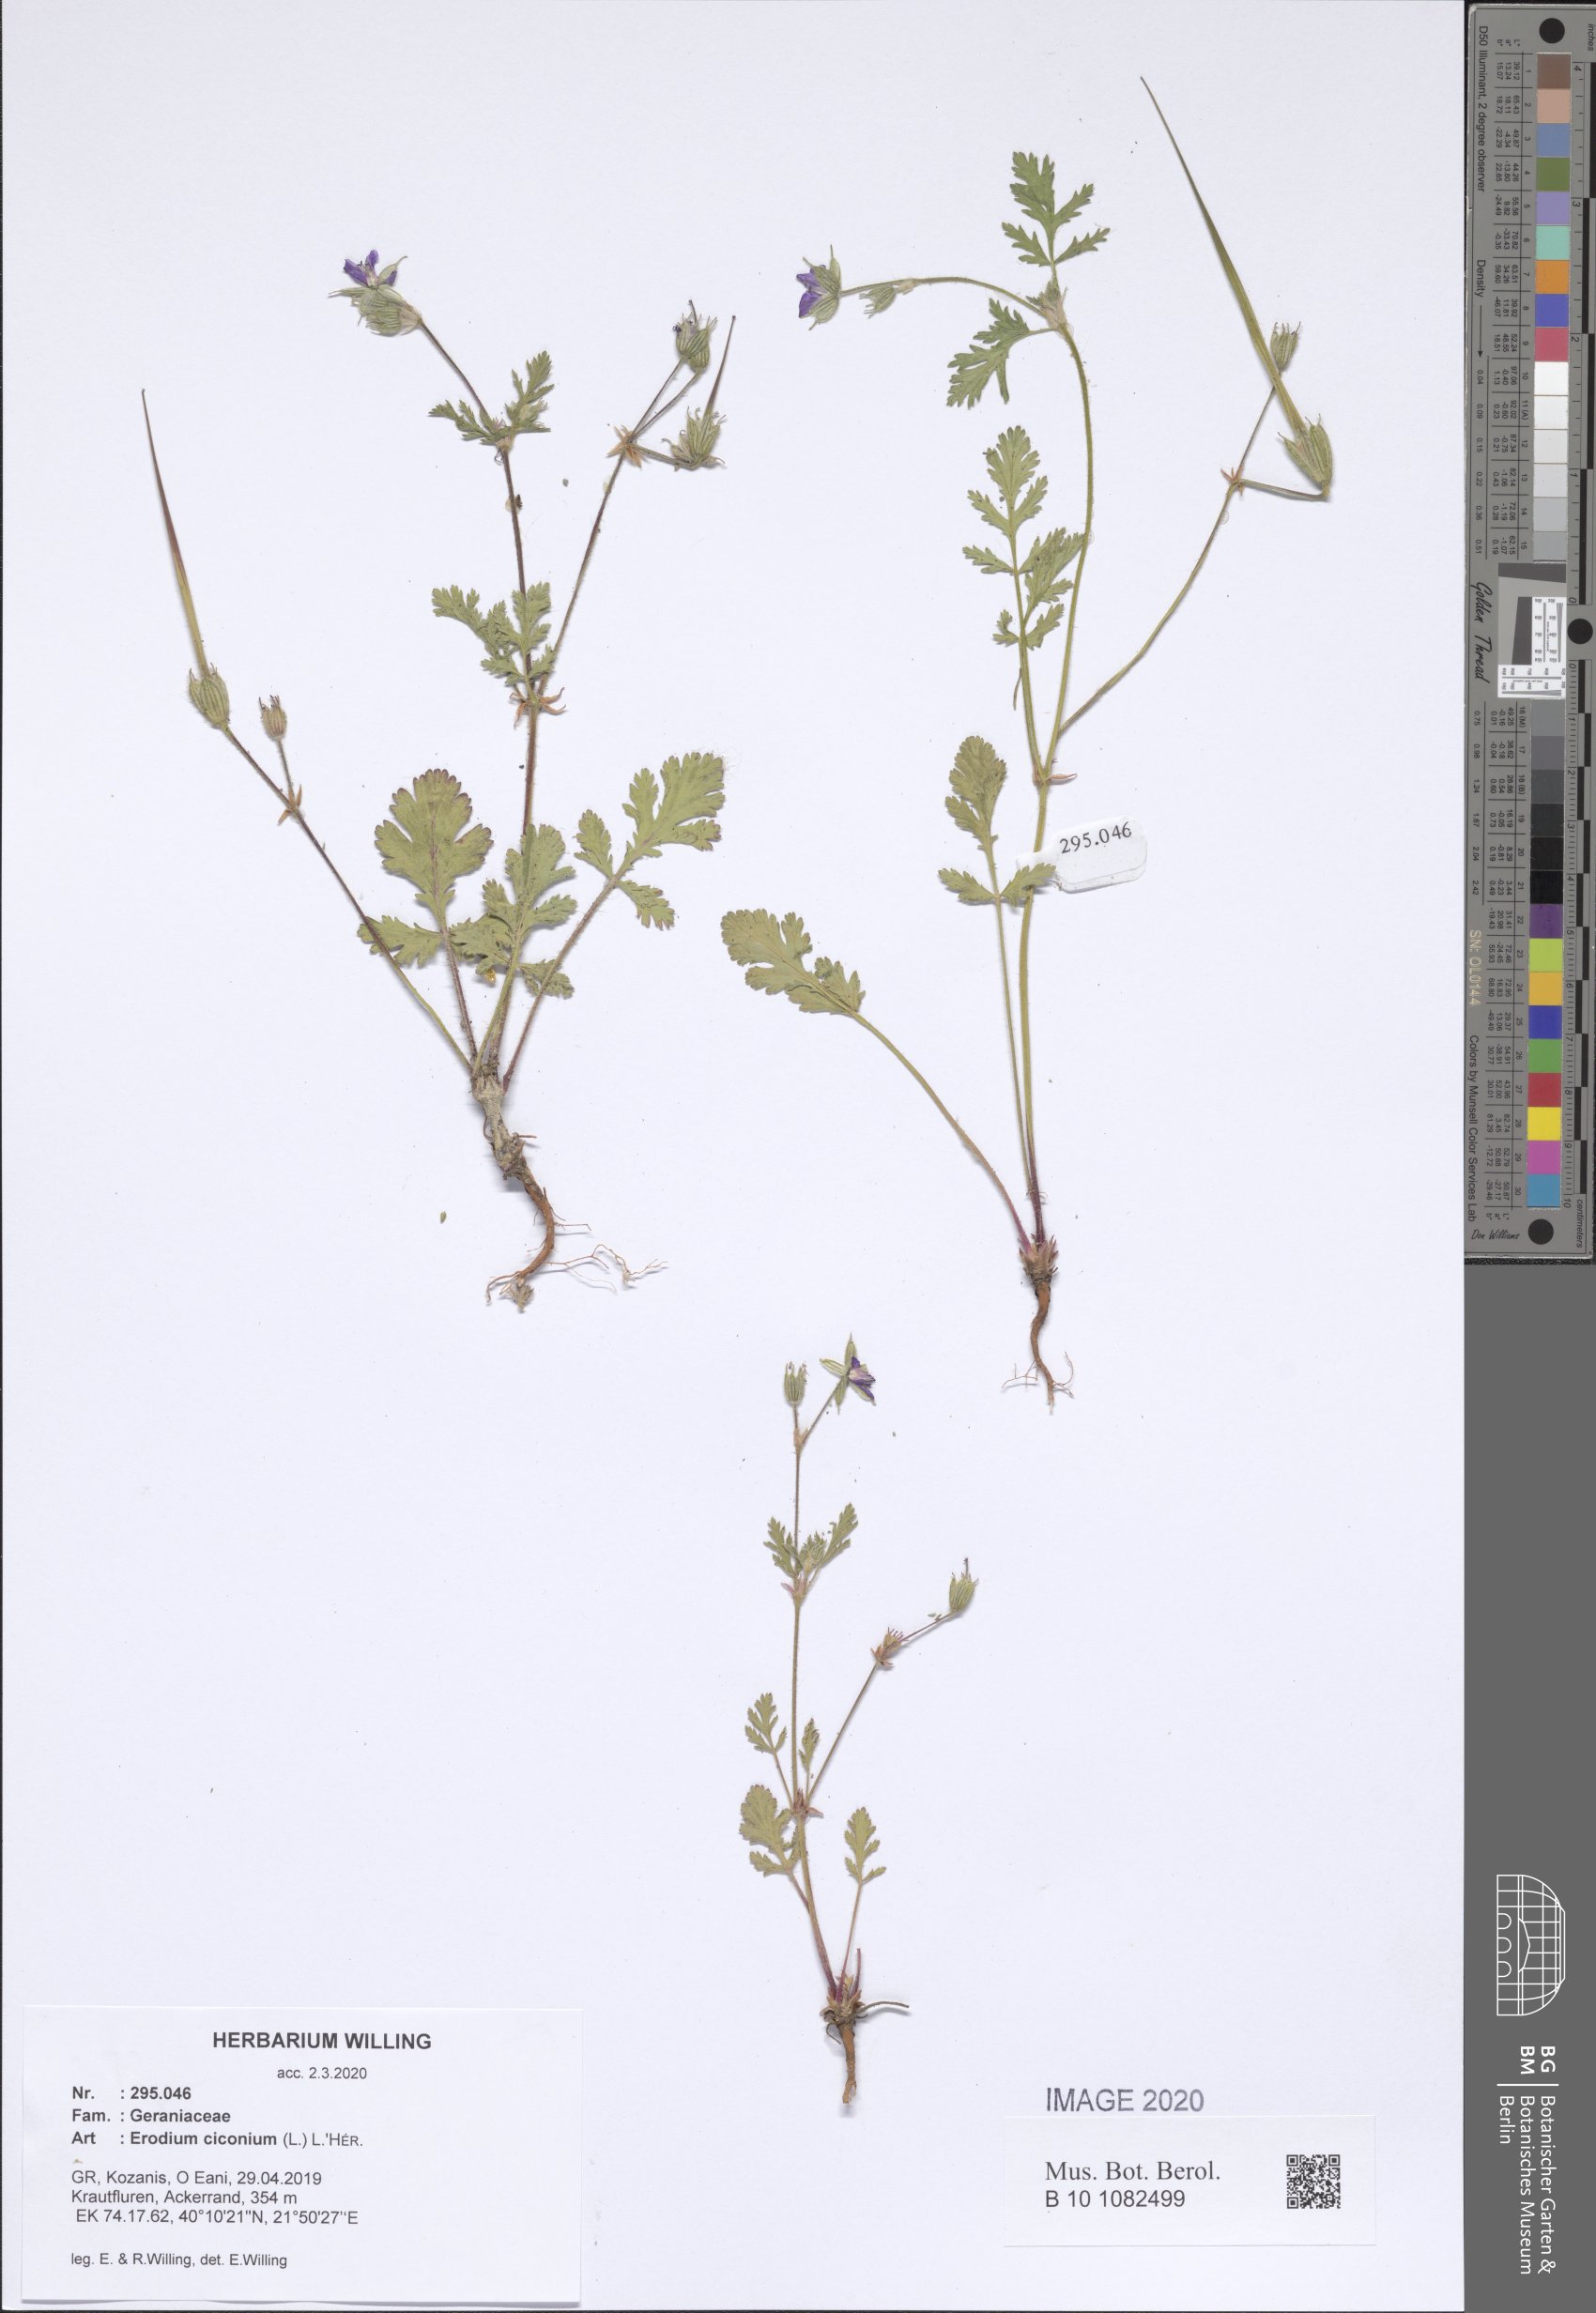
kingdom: Plantae
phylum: Tracheophyta
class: Magnoliopsida
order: Geraniales
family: Geraniaceae
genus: Erodium
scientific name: Erodium ciconium
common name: Common stork's bill
